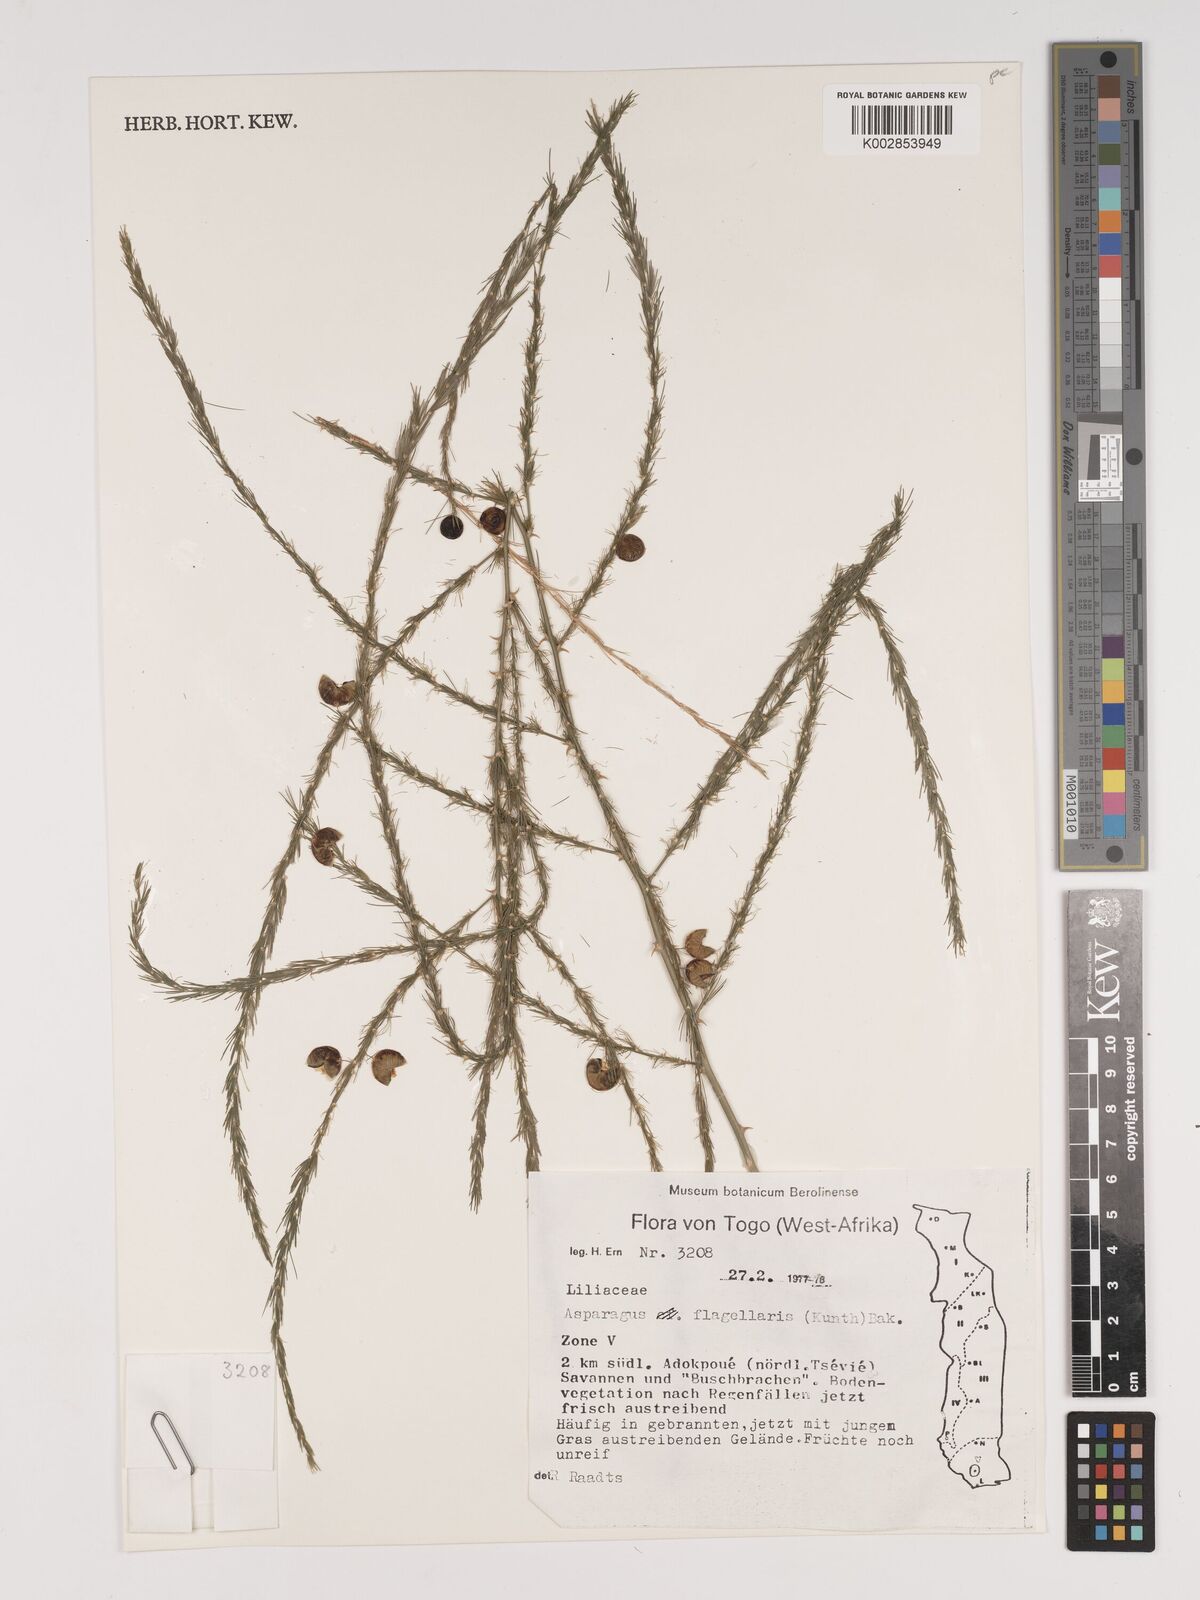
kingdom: Plantae
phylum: Tracheophyta
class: Liliopsida
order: Asparagales
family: Asparagaceae
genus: Asparagus
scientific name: Asparagus flagellaris
